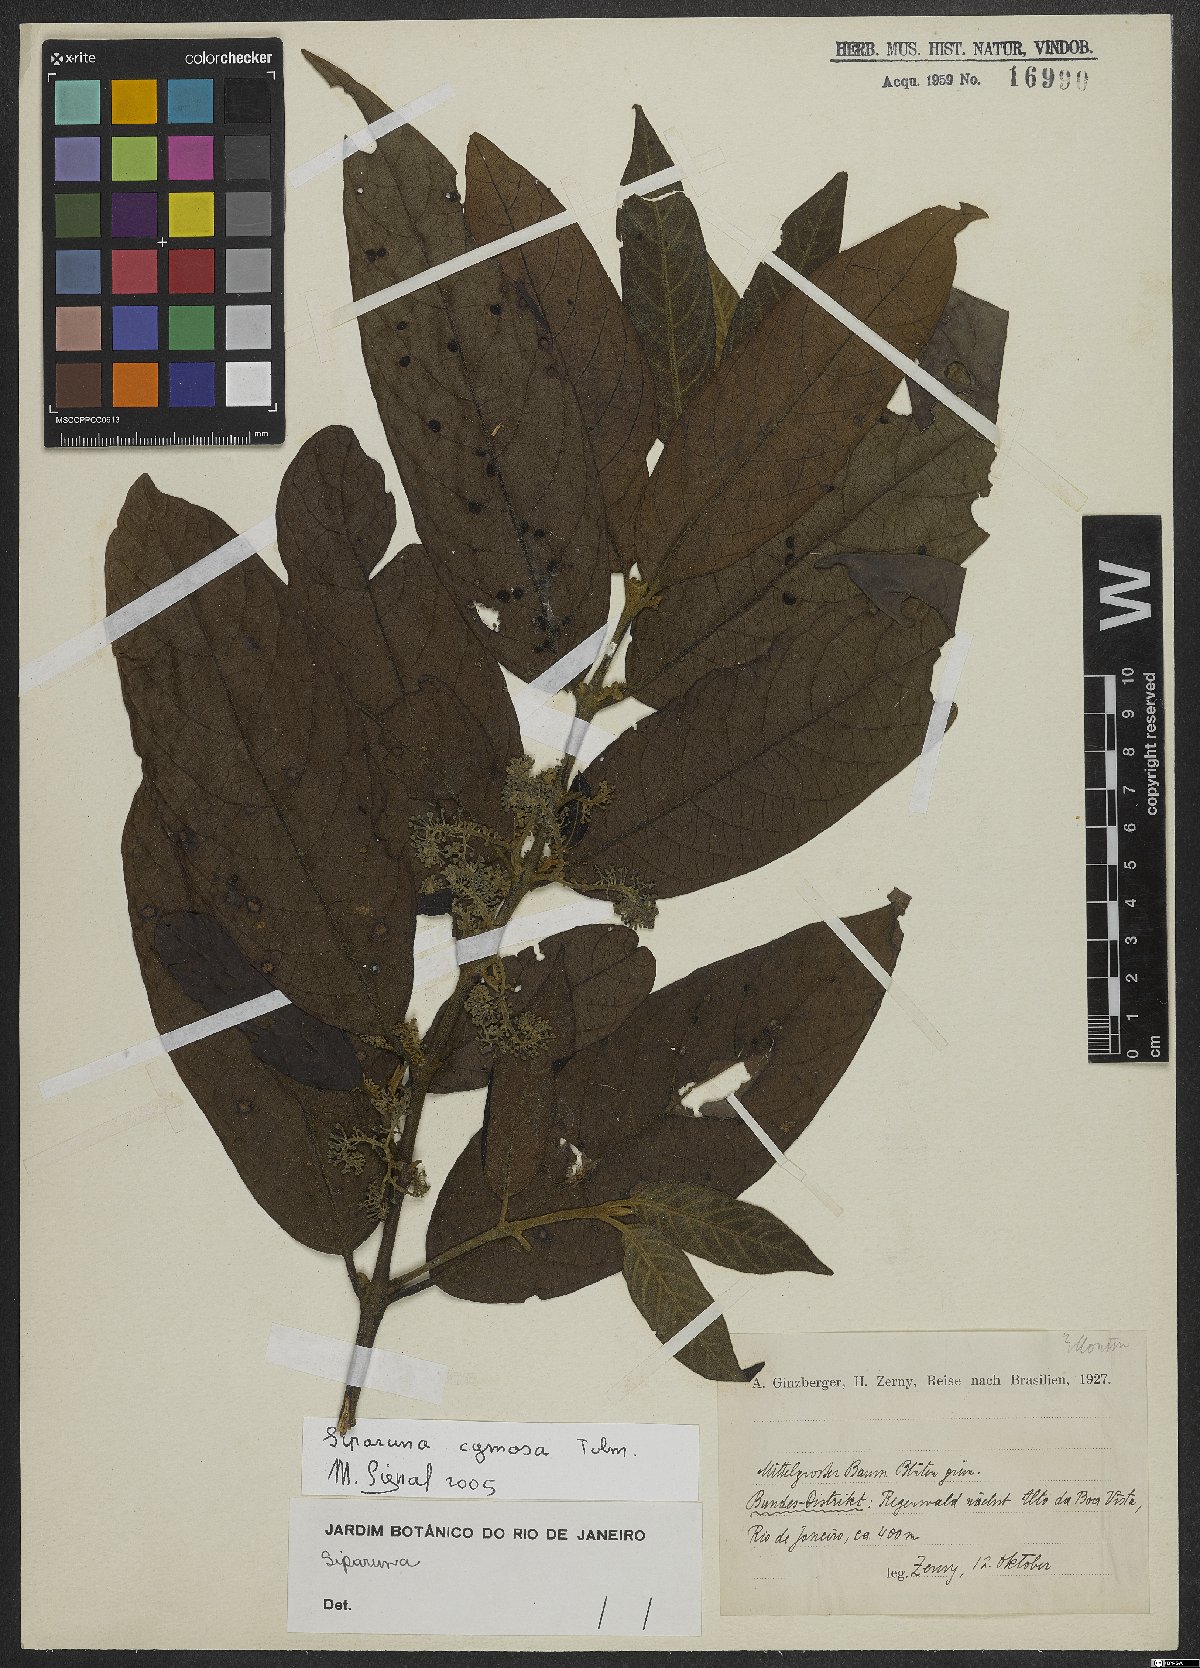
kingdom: Plantae
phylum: Tracheophyta
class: Magnoliopsida
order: Laurales
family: Siparunaceae
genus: Siparuna
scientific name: Siparuna cymosa
